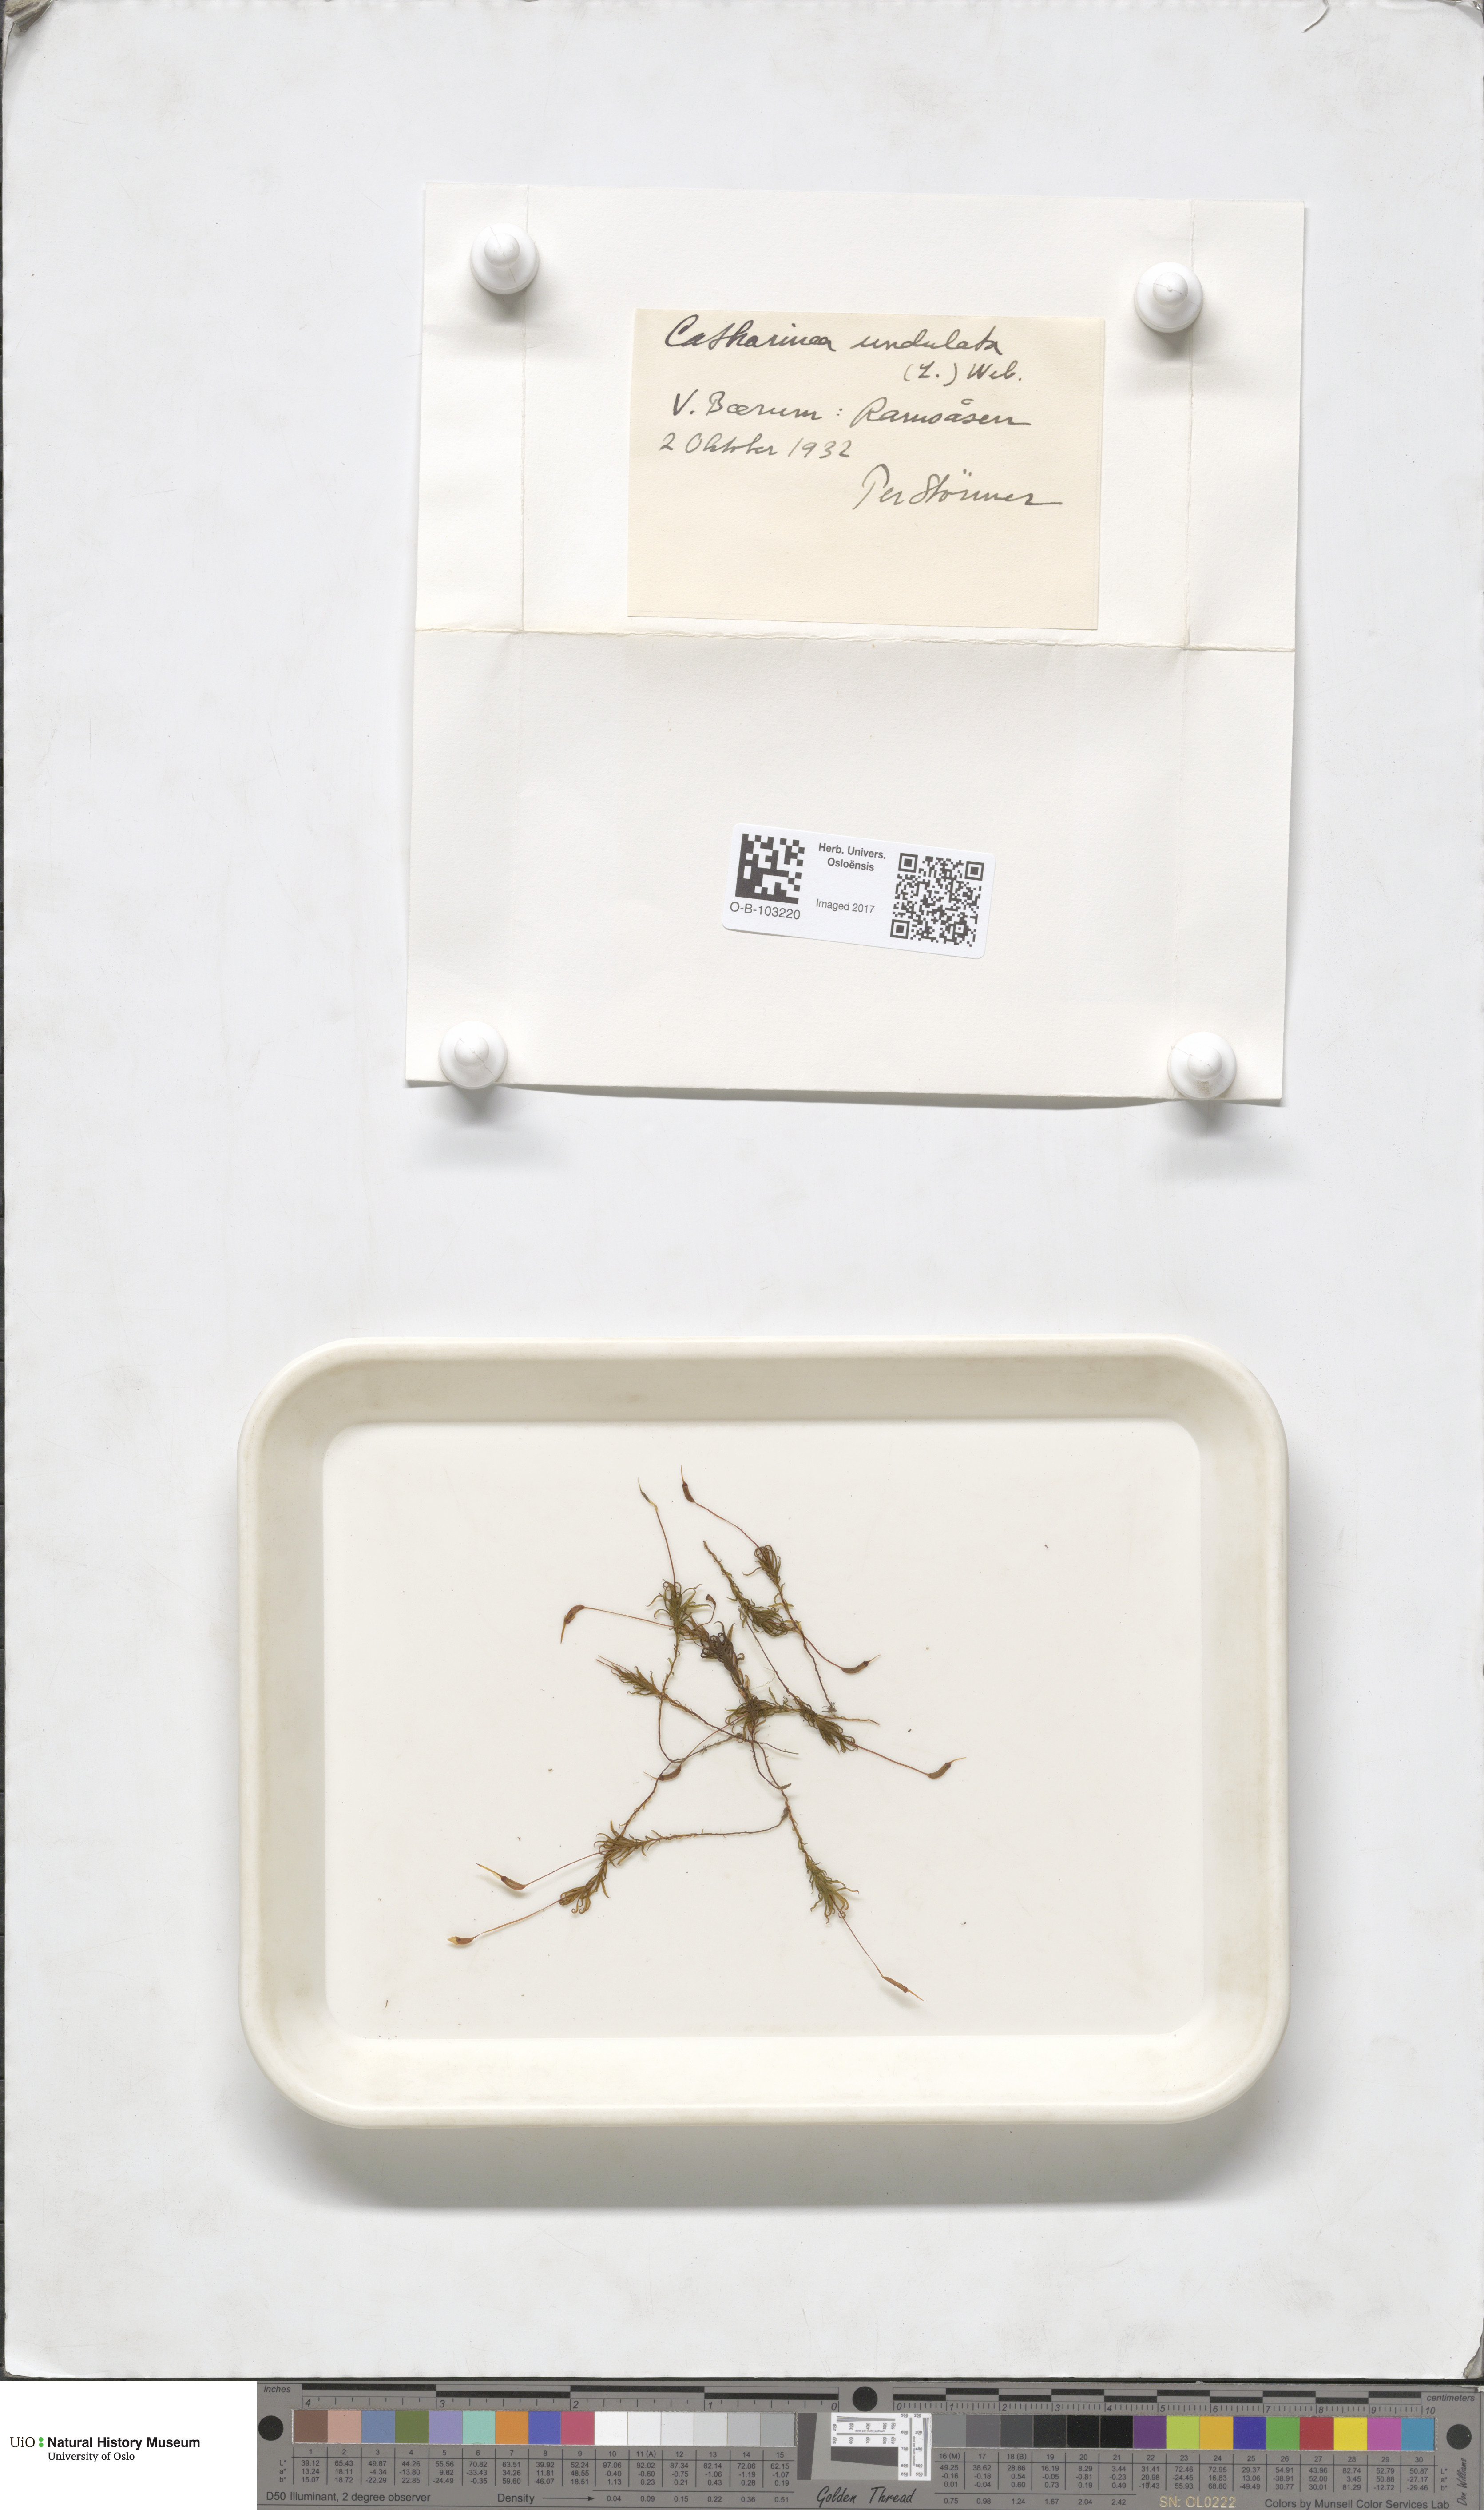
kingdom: Plantae
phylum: Bryophyta
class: Polytrichopsida
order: Polytrichales
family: Polytrichaceae
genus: Atrichum
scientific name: Atrichum undulatum
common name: Common smoothcap
